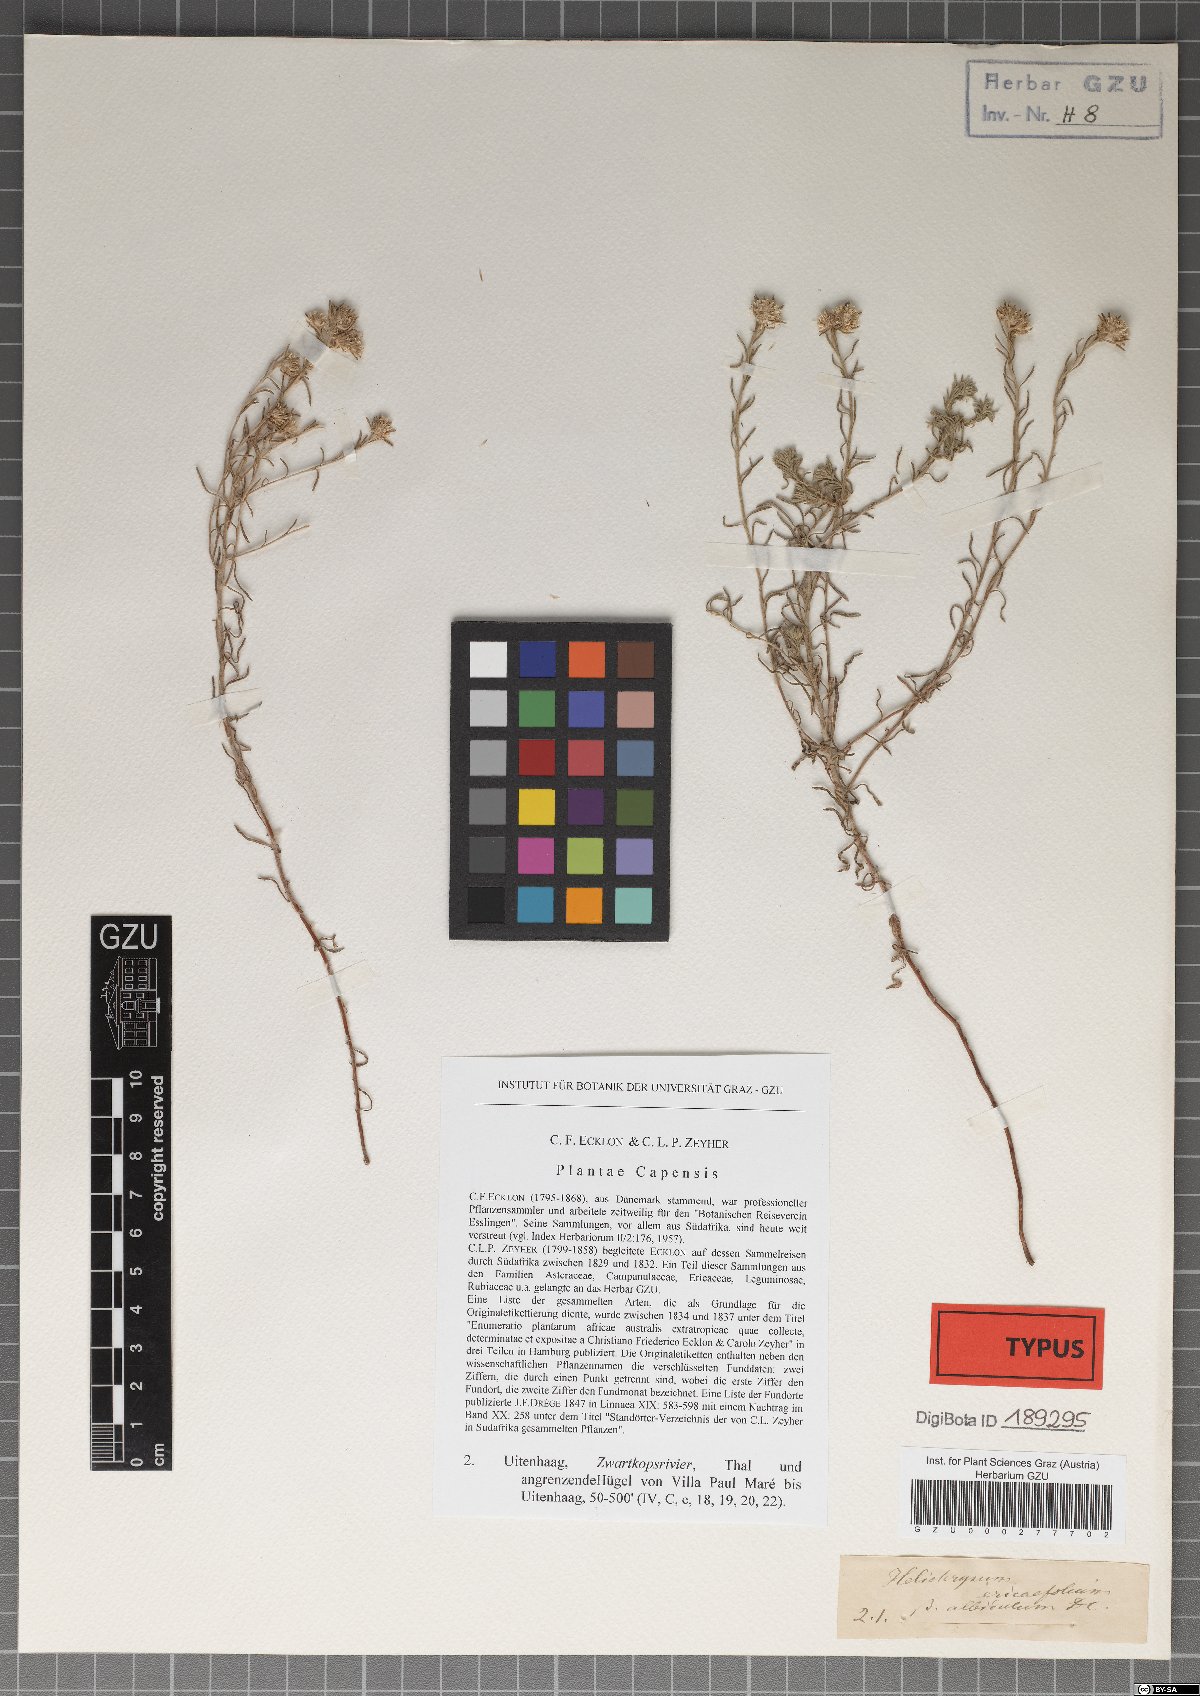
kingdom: Plantae
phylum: Tracheophyta
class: Magnoliopsida
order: Asterales
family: Asteraceae
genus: Helichrysum
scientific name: Helichrysum asperum
